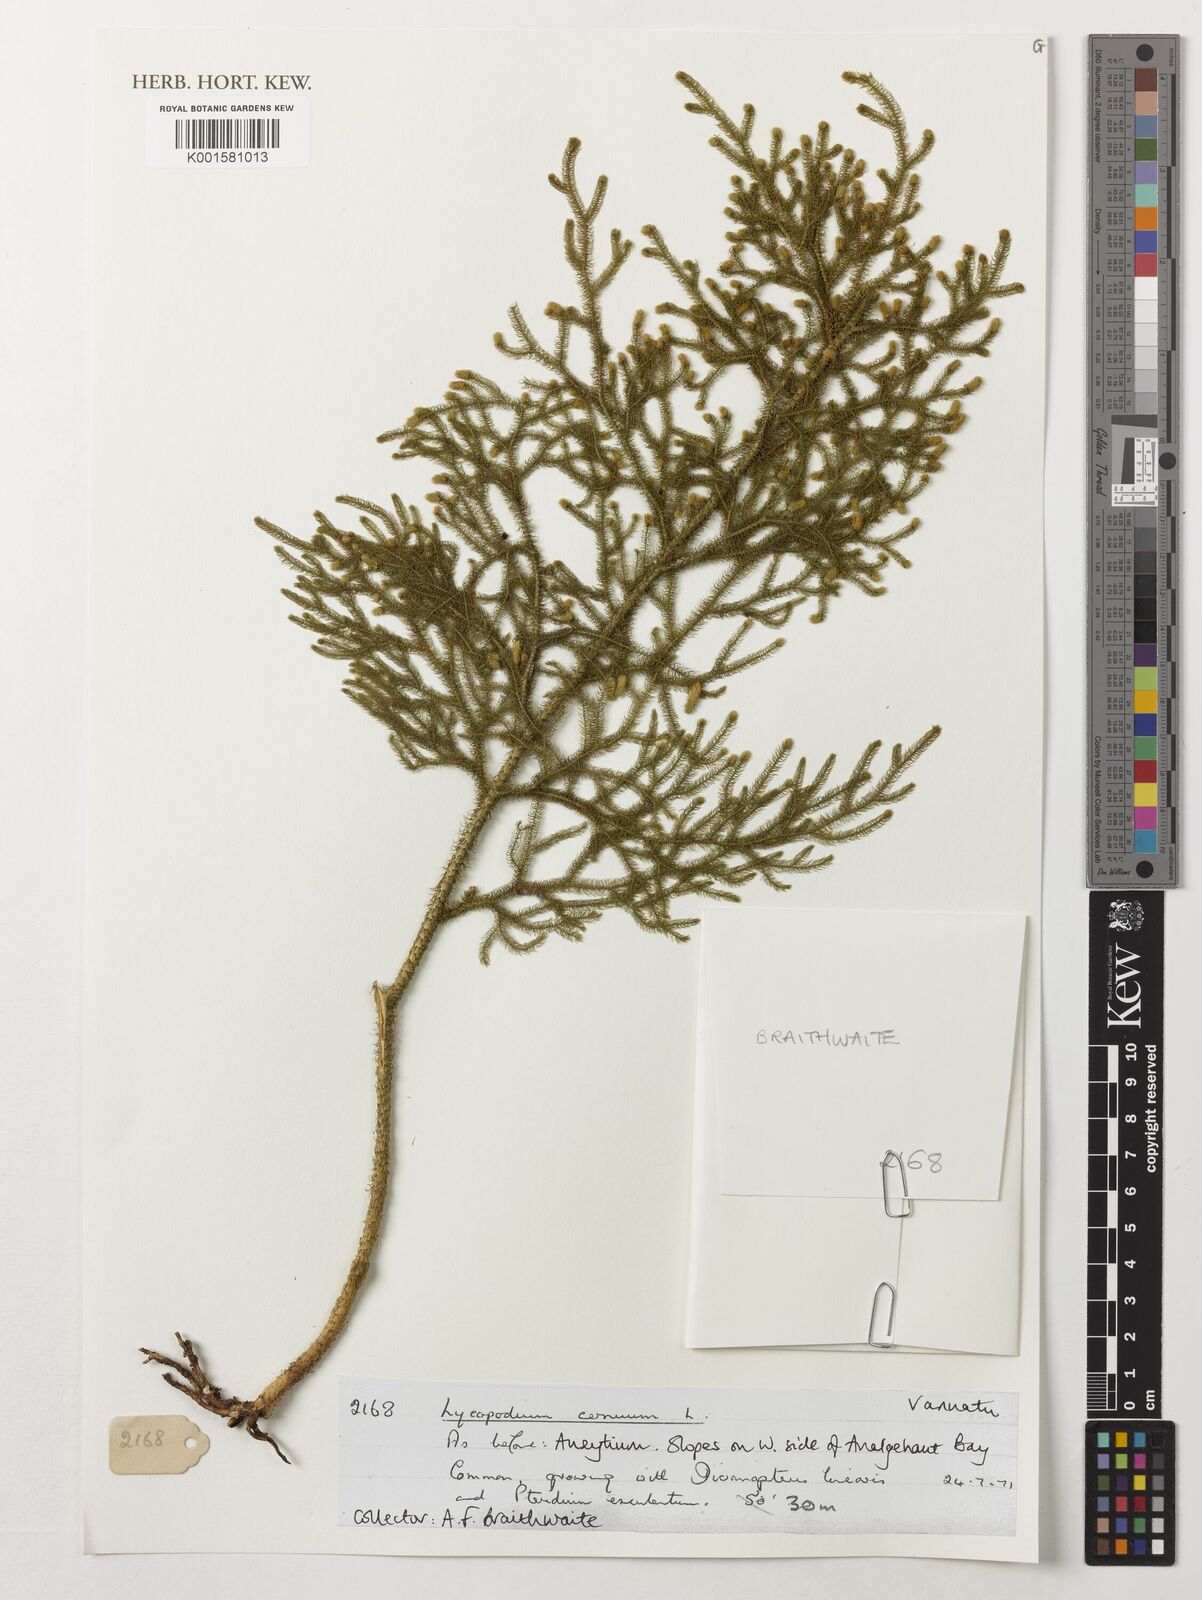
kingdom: Plantae
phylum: Tracheophyta
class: Lycopodiopsida
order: Lycopodiales
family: Lycopodiaceae
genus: Lycopodium
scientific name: Lycopodium
